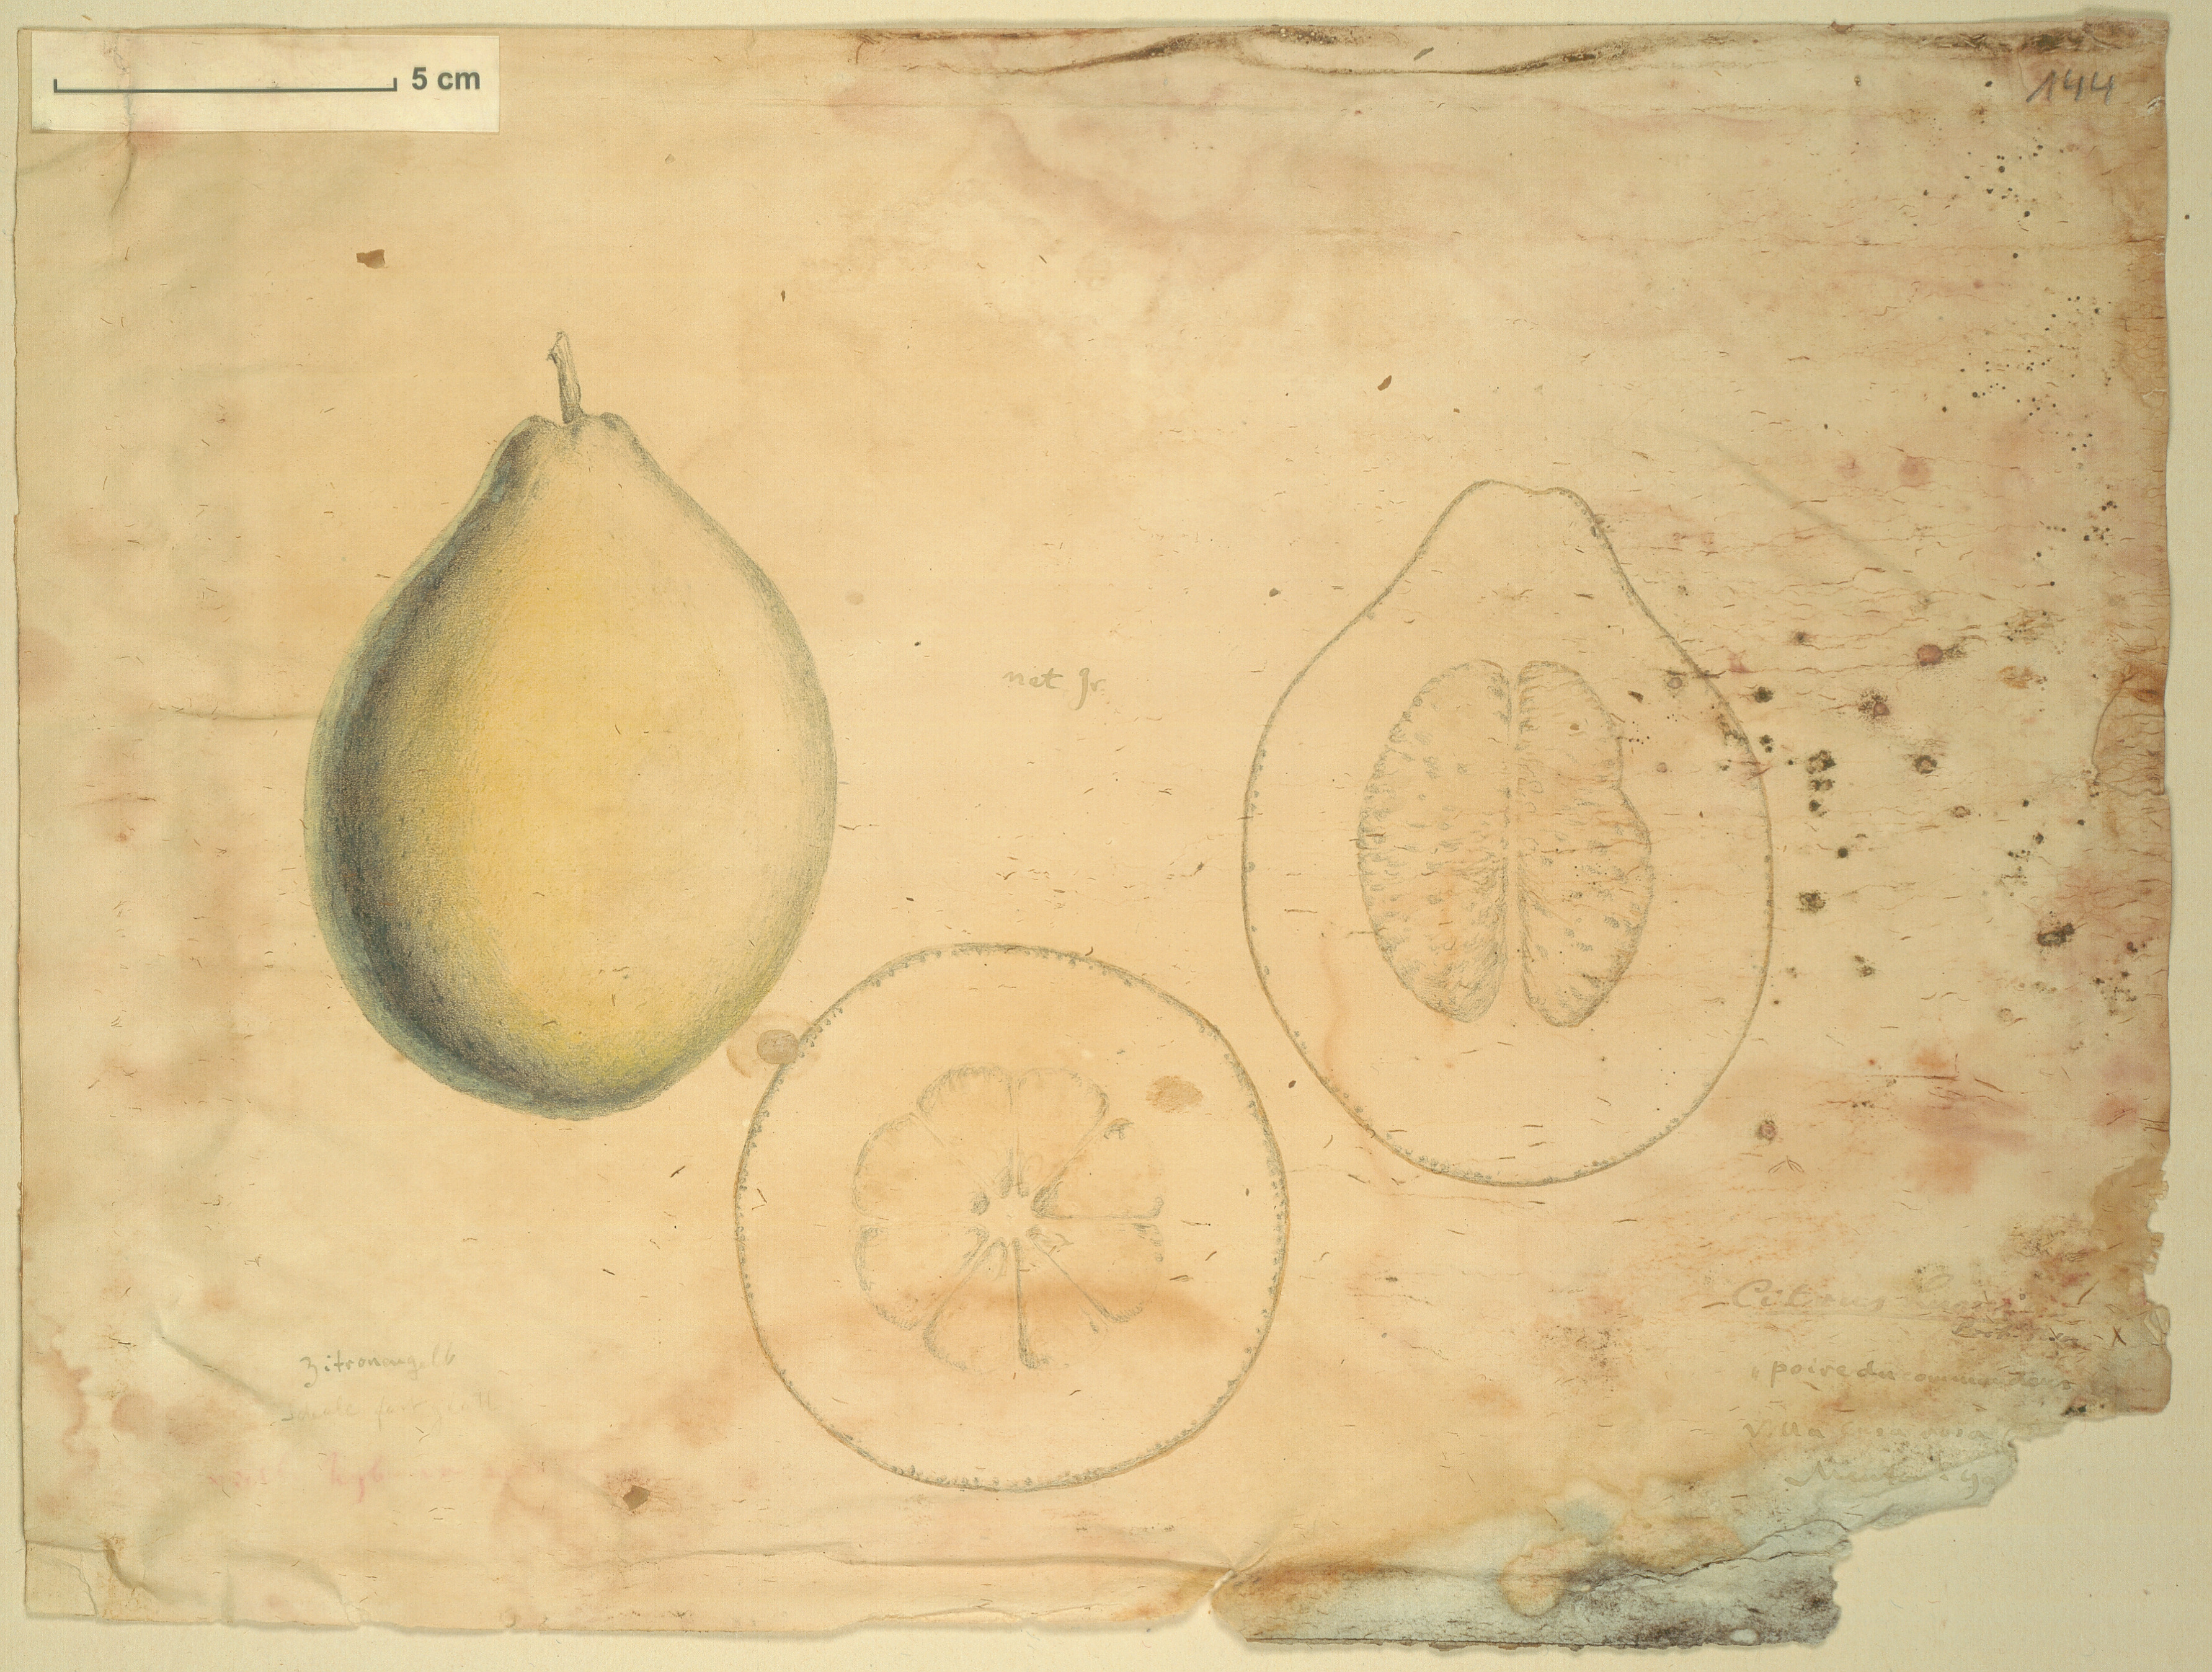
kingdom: Plantae
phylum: Tracheophyta
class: Magnoliopsida
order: Sapindales
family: Rutaceae
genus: Citrus
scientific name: Citrus
